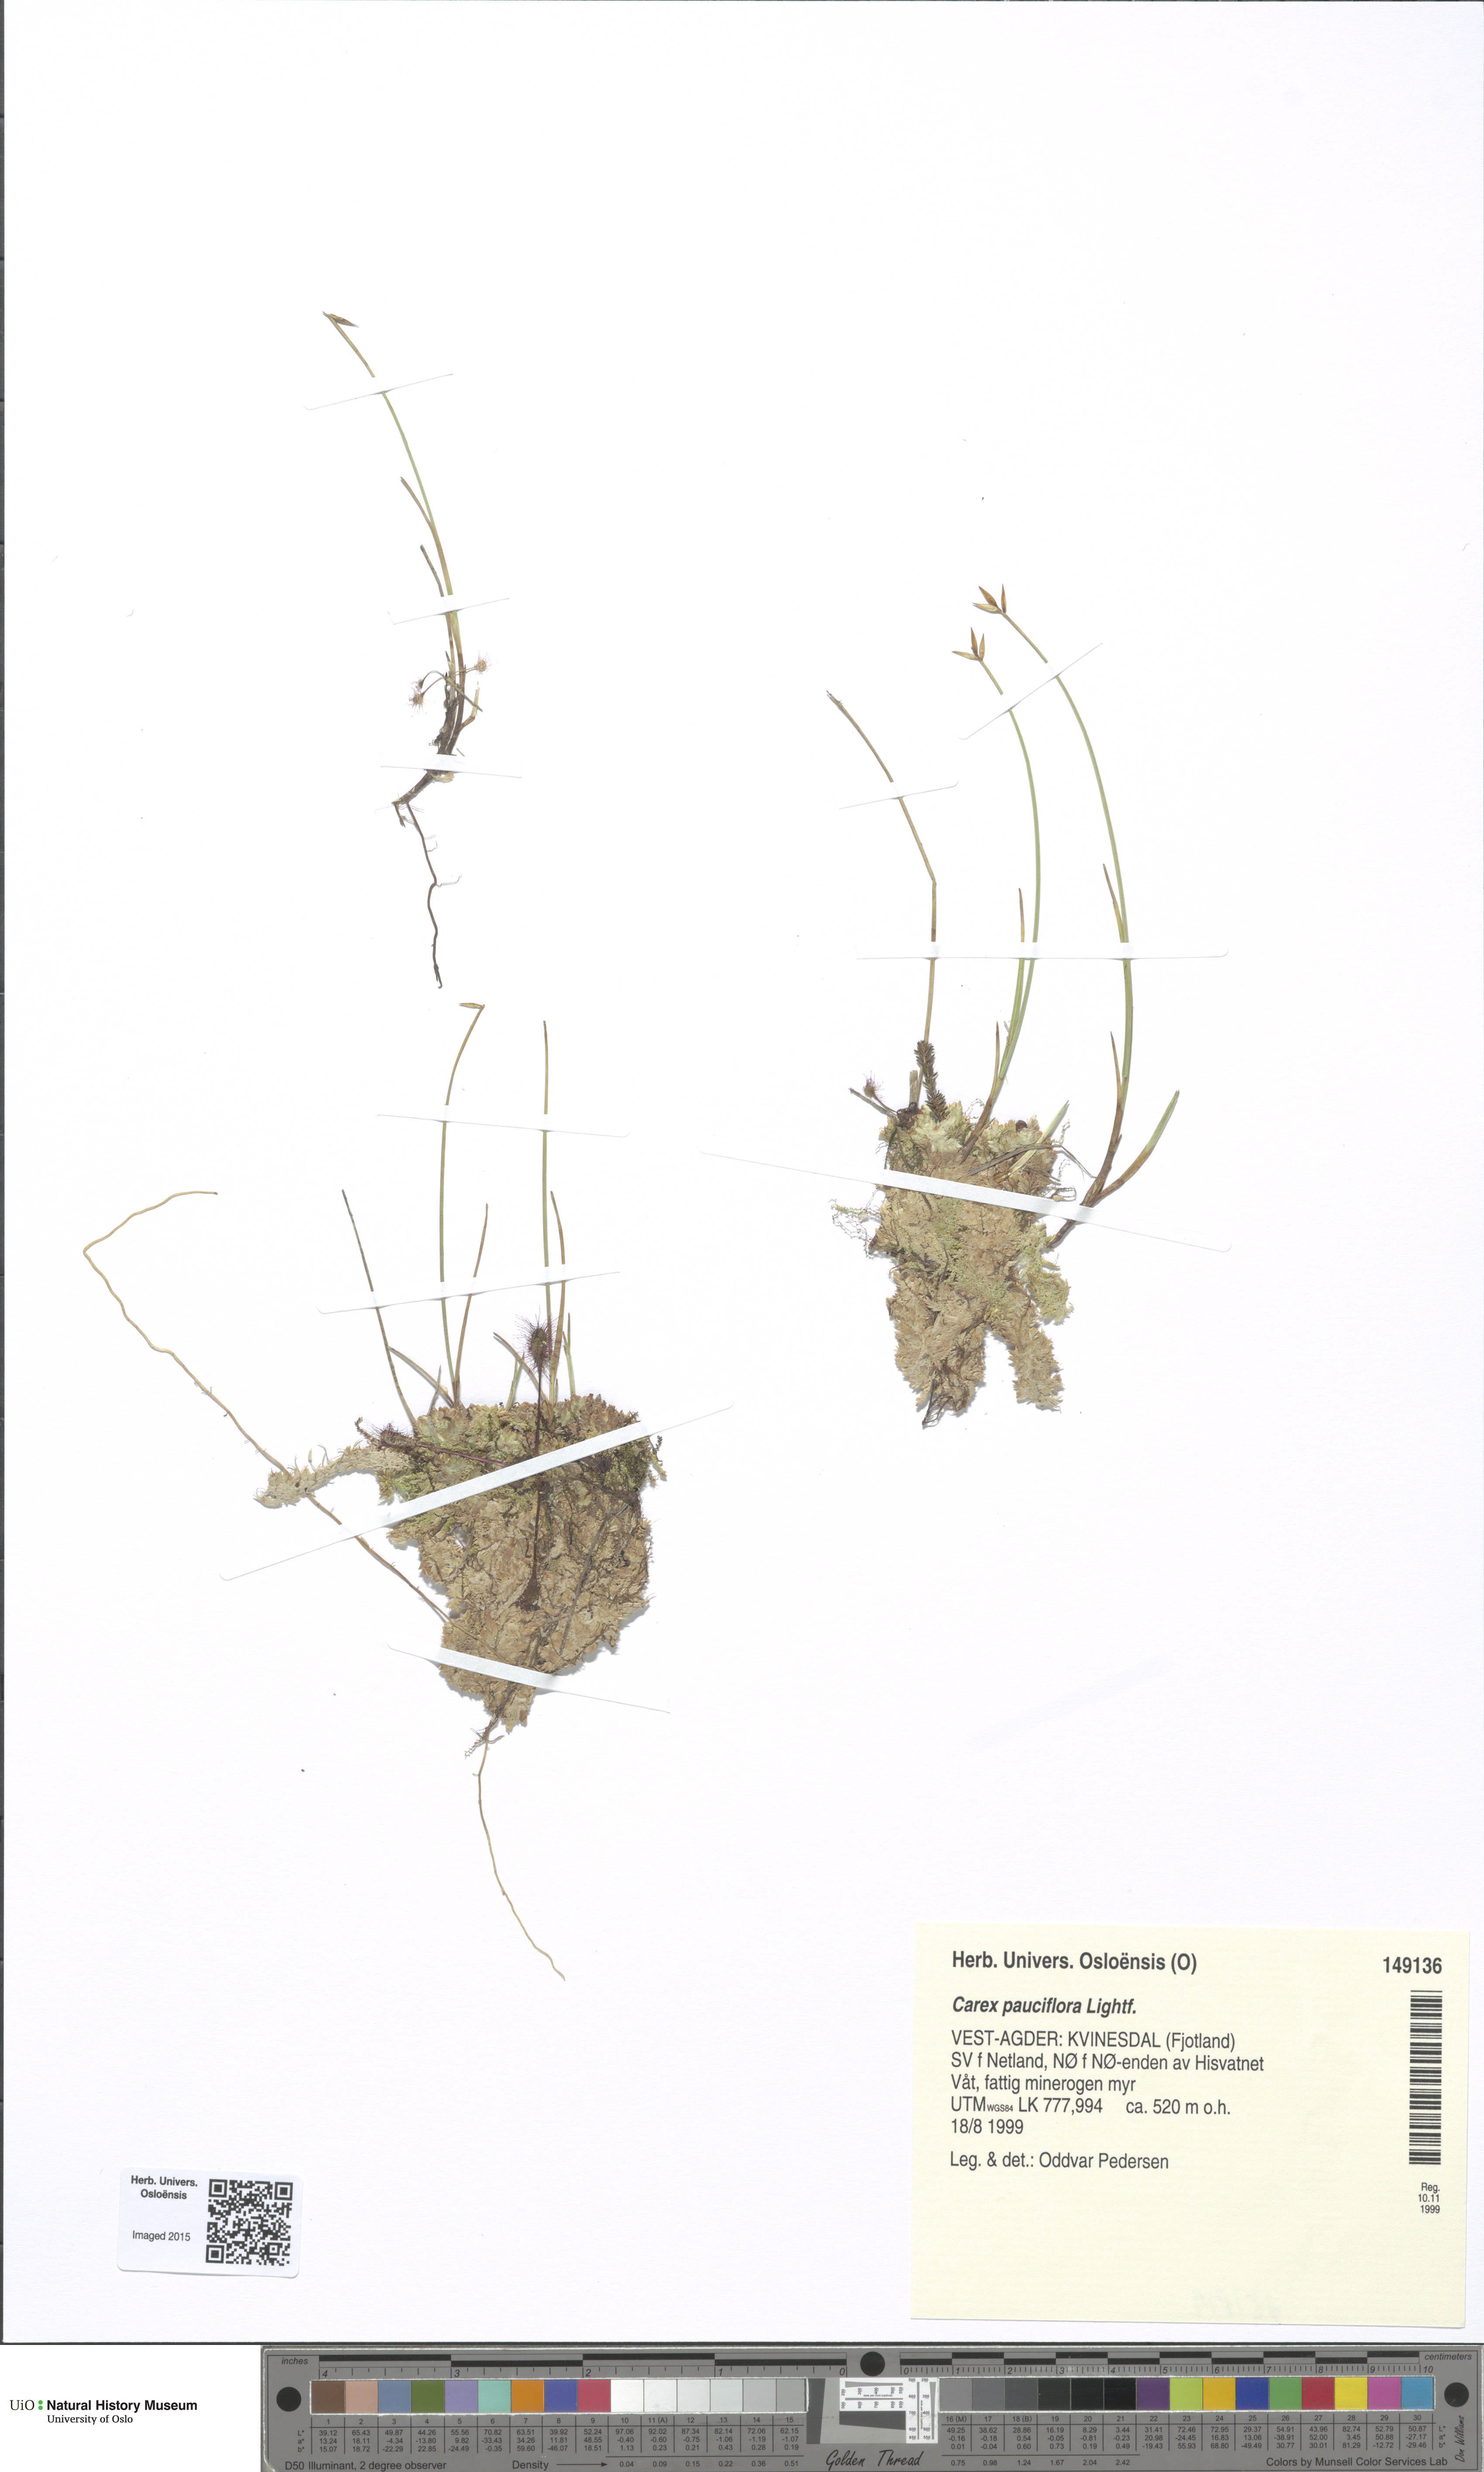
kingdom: Plantae
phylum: Tracheophyta
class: Liliopsida
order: Poales
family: Cyperaceae
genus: Carex
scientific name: Carex pauciflora
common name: Few-flowered sedge
